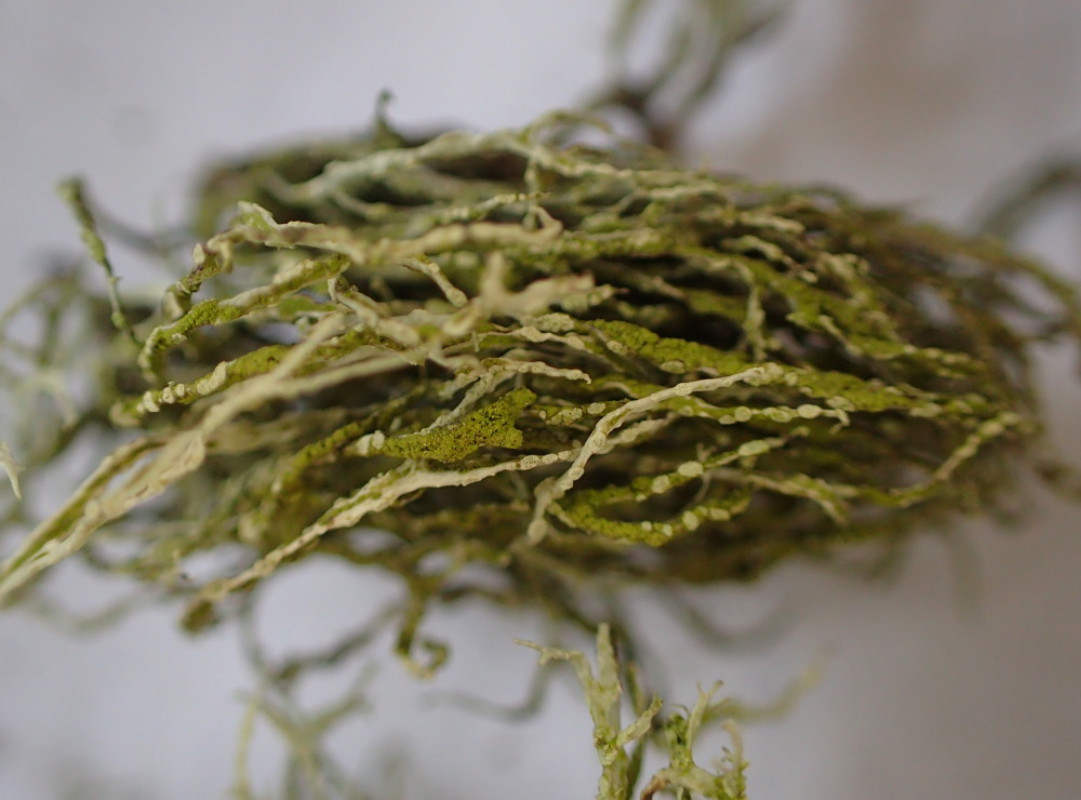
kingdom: Fungi
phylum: Ascomycota
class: Lecanoromycetes
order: Lecanorales
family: Ramalinaceae
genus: Ramalina
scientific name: Ramalina farinacea
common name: melet grenlav
